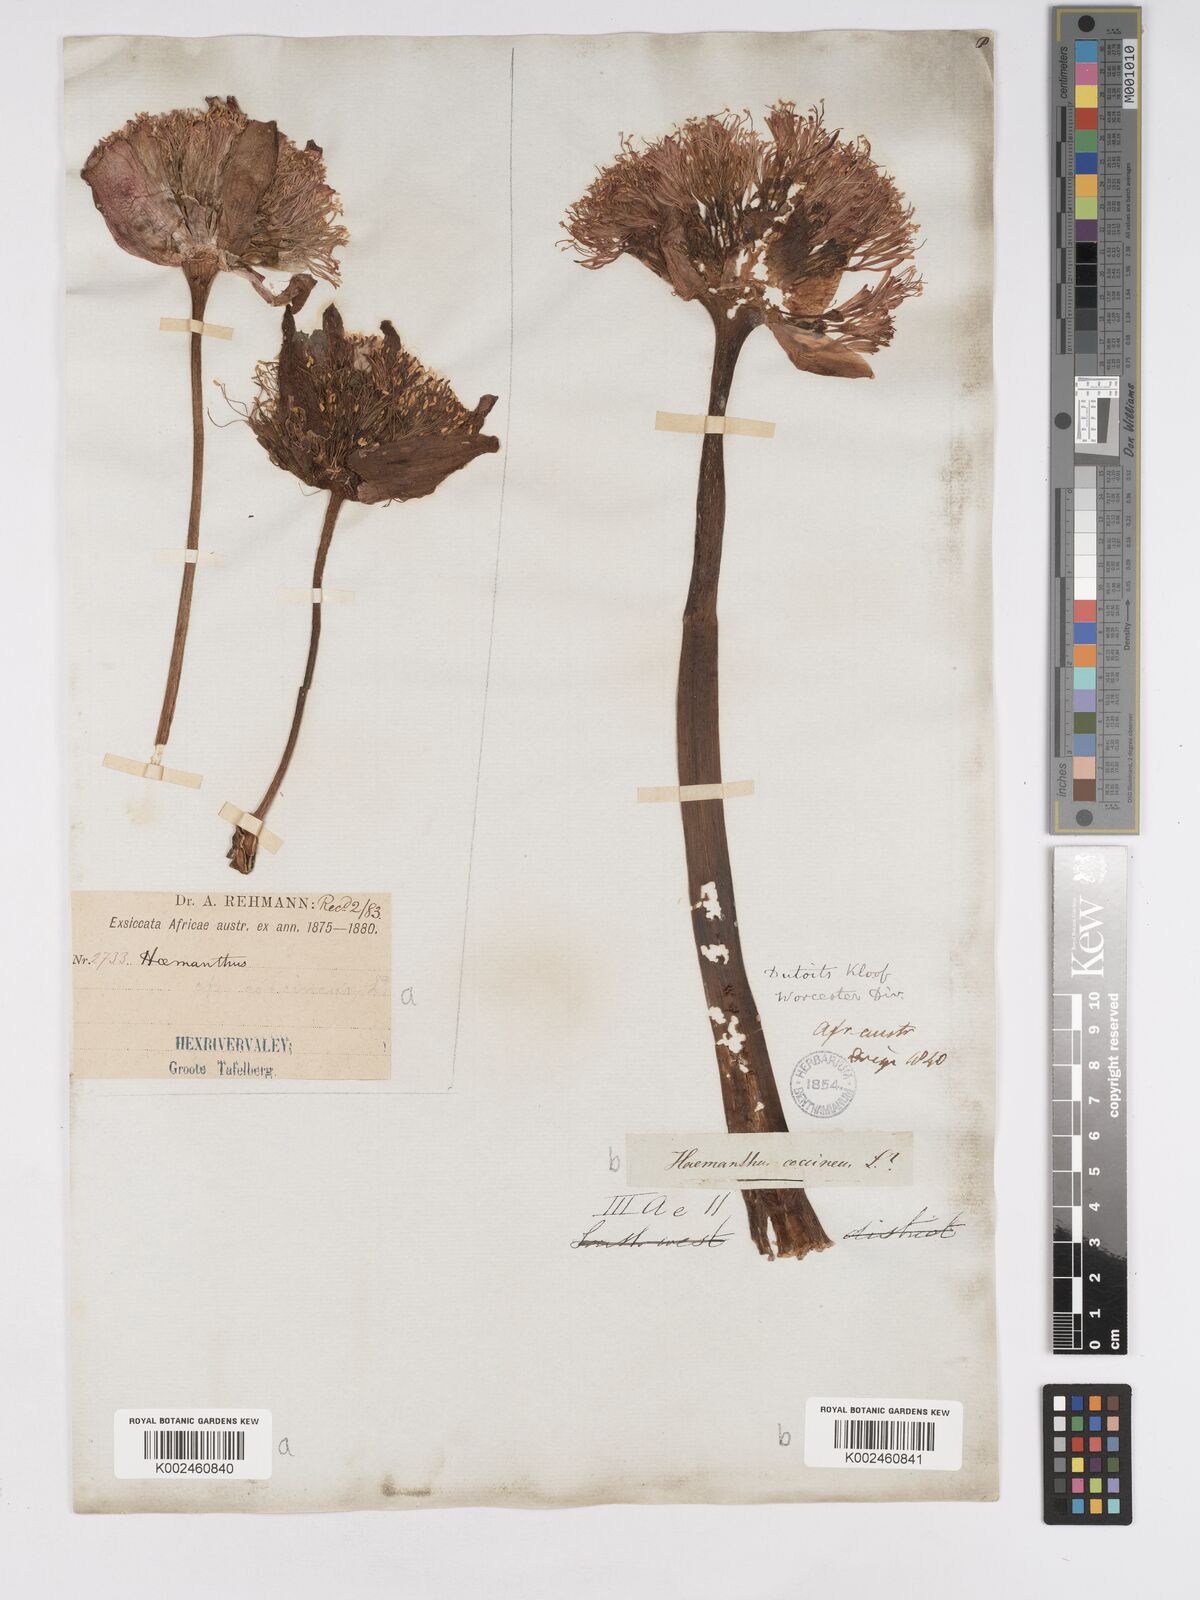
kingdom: Plantae
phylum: Tracheophyta
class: Liliopsida
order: Asparagales
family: Amaryllidaceae
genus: Haemanthus
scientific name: Haemanthus sanguineus
